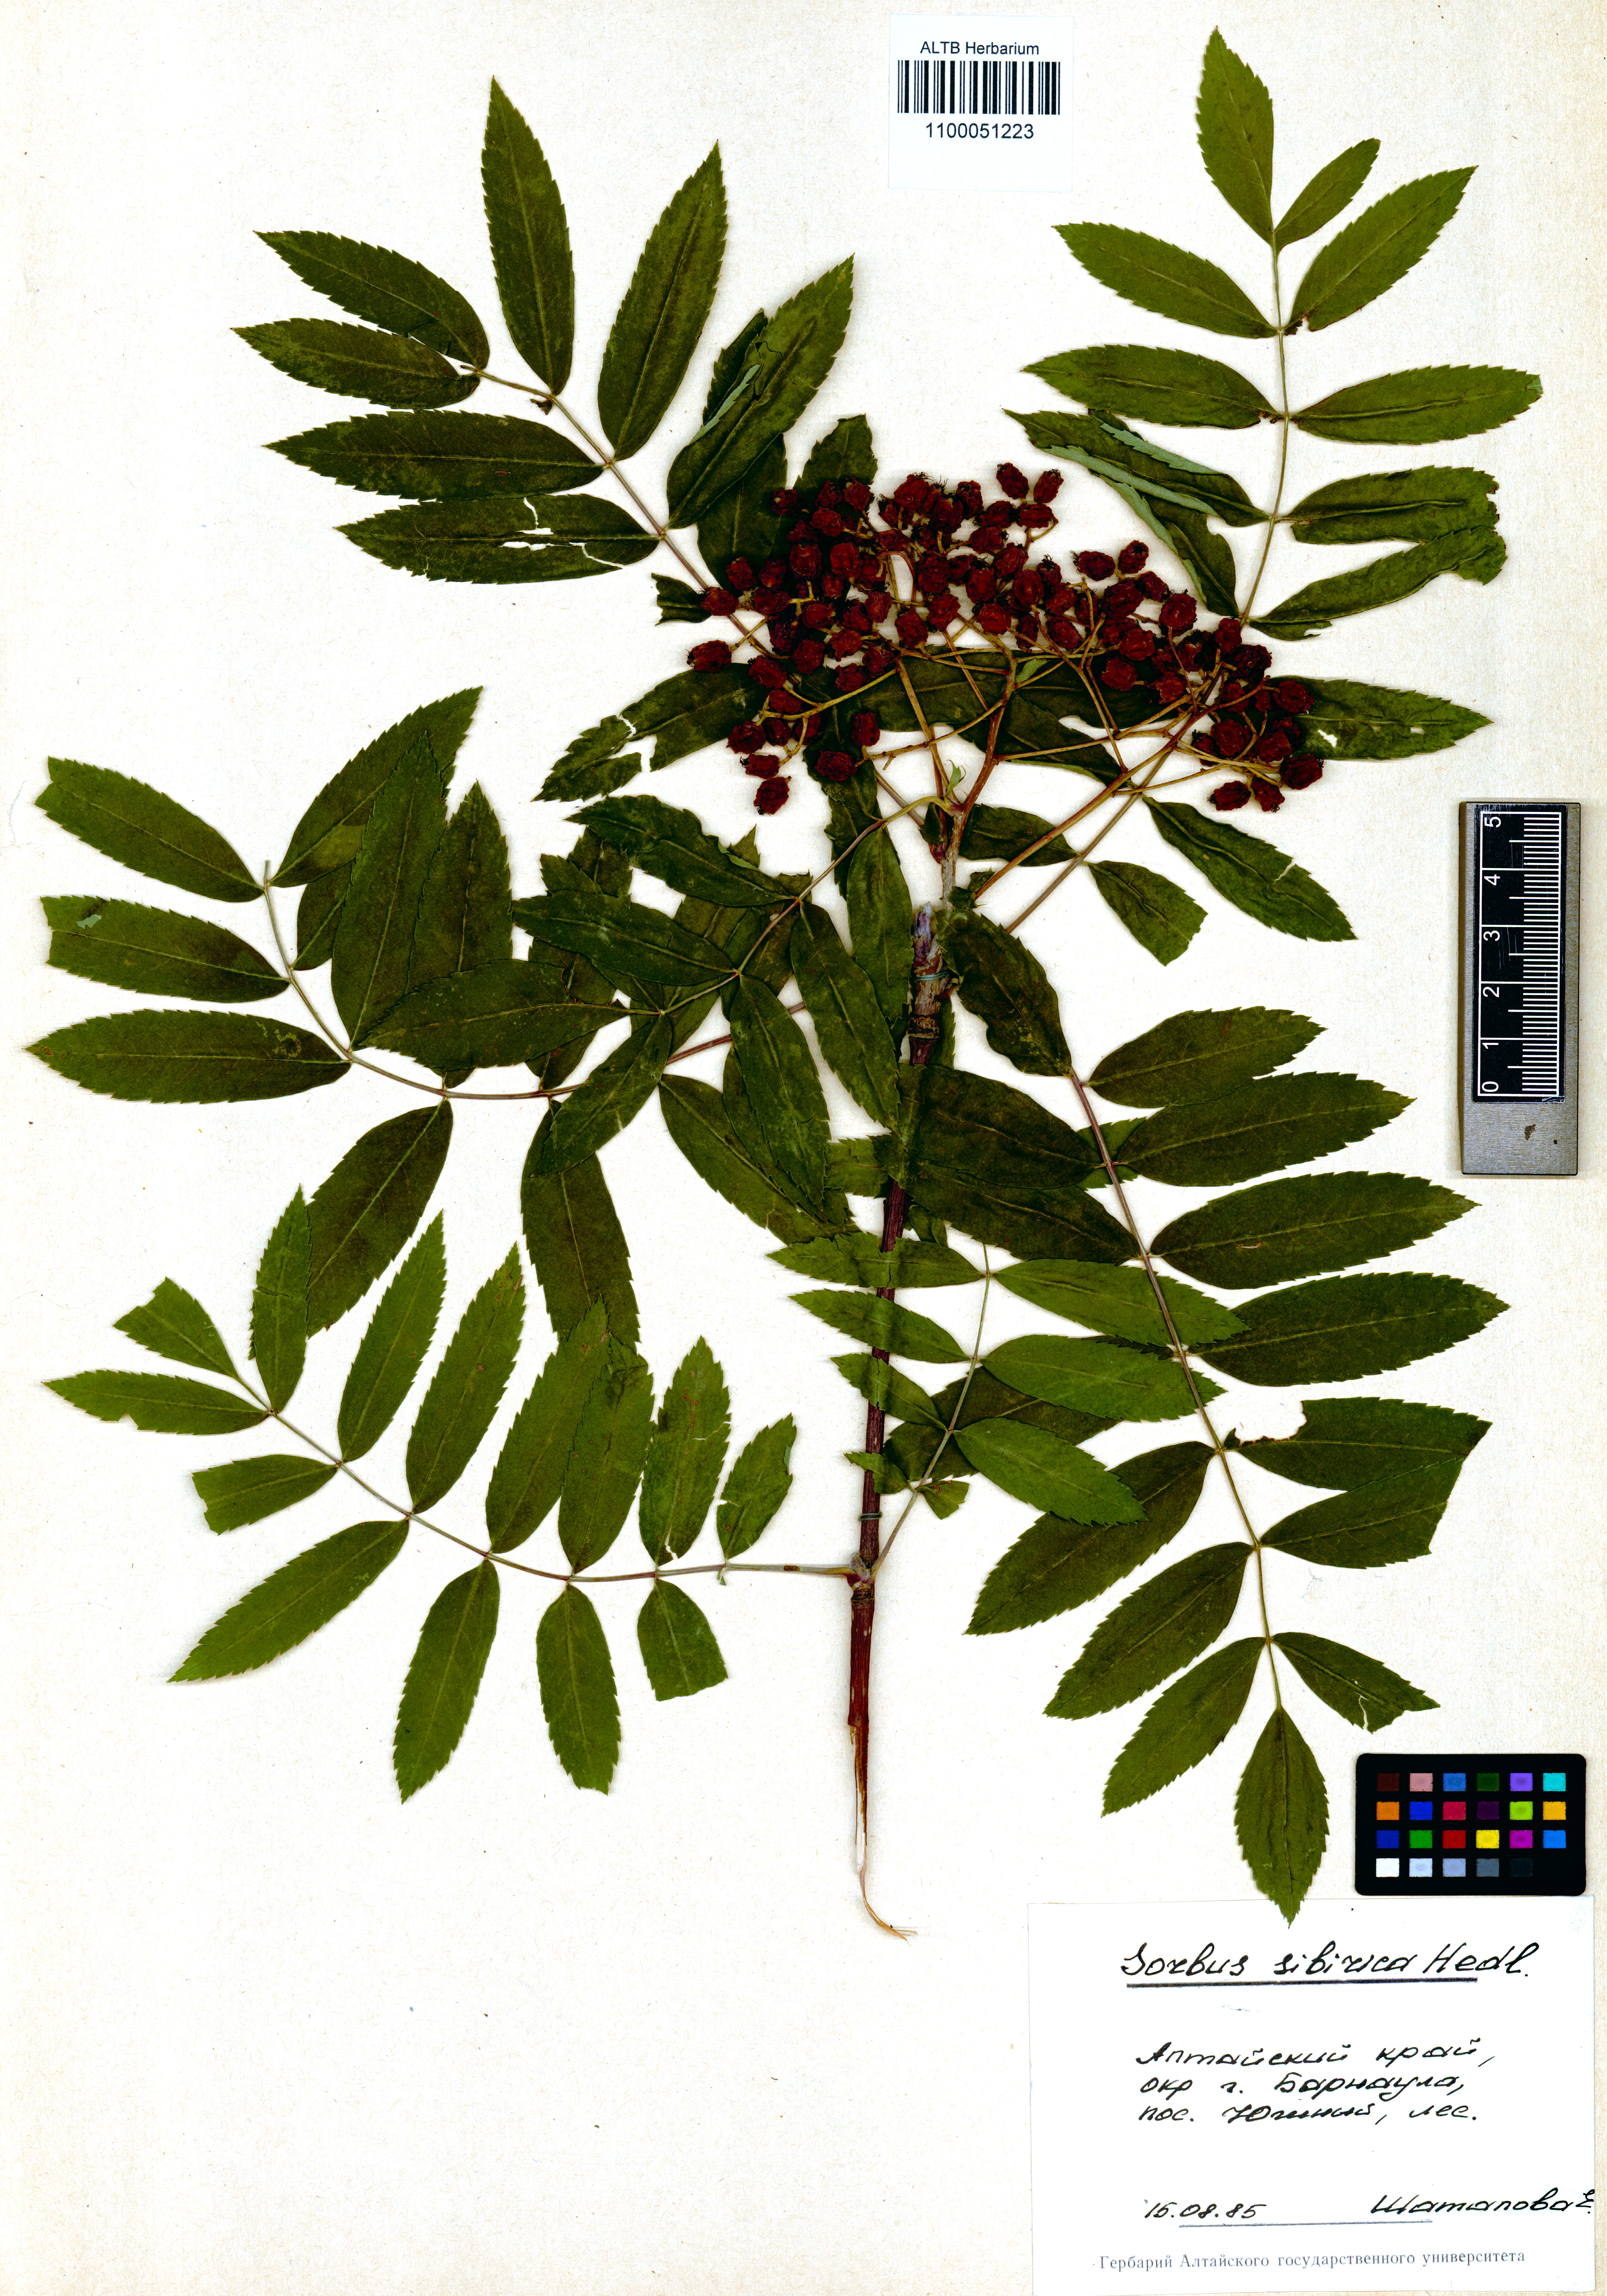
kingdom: Plantae
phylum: Tracheophyta
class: Magnoliopsida
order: Rosales
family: Rosaceae
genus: Sorbus
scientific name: Sorbus aucuparia
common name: Rowan
